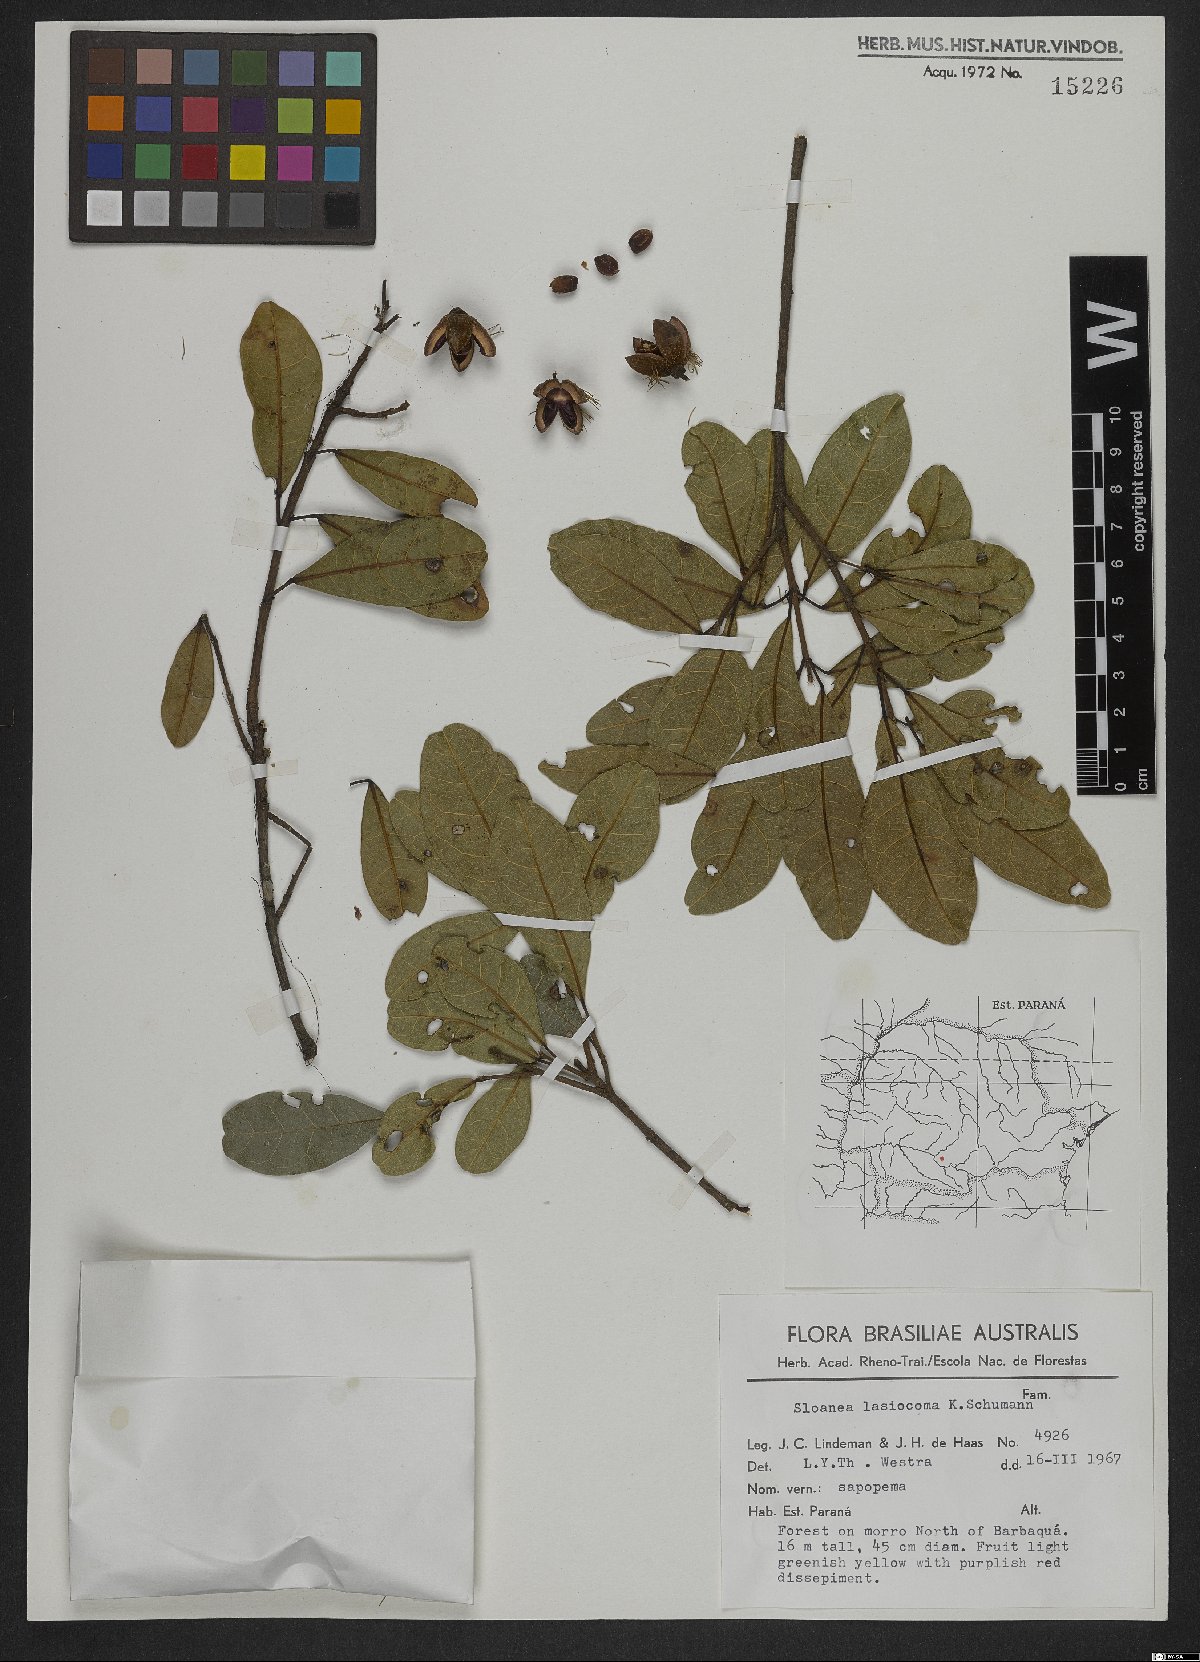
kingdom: Plantae
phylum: Tracheophyta
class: Magnoliopsida
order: Oxalidales
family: Elaeocarpaceae
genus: Sloanea
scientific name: Sloanea hirsuta
